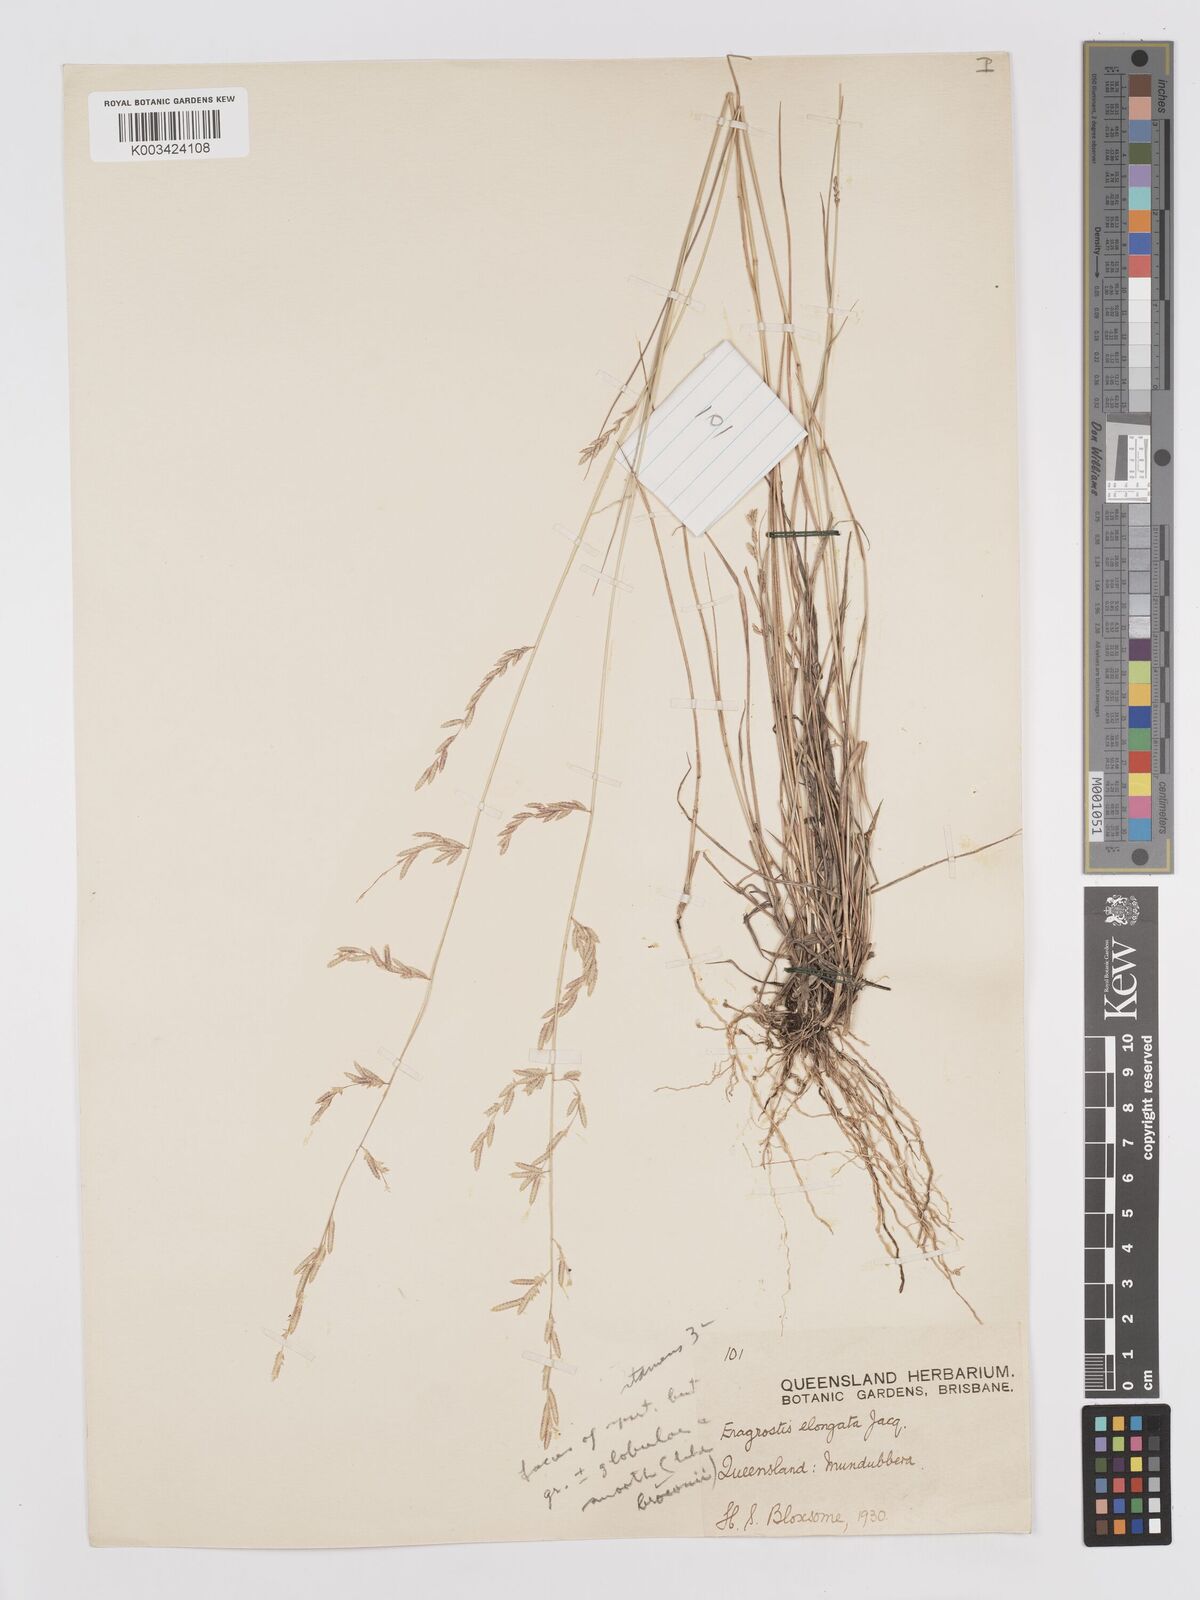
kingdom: Plantae
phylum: Tracheophyta
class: Liliopsida
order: Poales
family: Poaceae
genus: Eragrostis
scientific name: Eragrostis brownii
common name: Lovegrass
